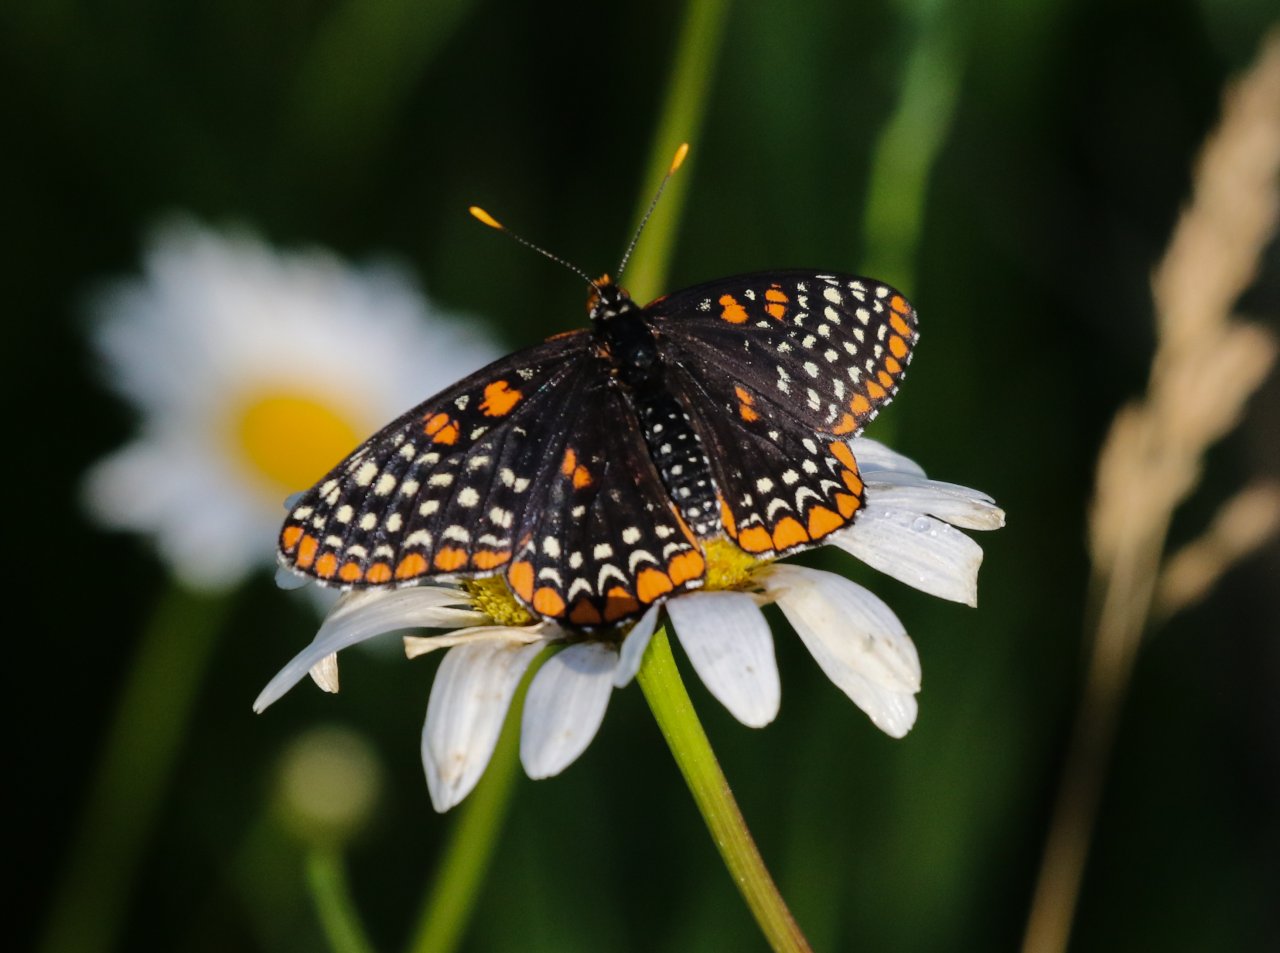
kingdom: Animalia
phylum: Arthropoda
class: Insecta
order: Lepidoptera
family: Nymphalidae
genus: Euphydryas
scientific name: Euphydryas phaeton
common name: Baltimore Checkerspot
